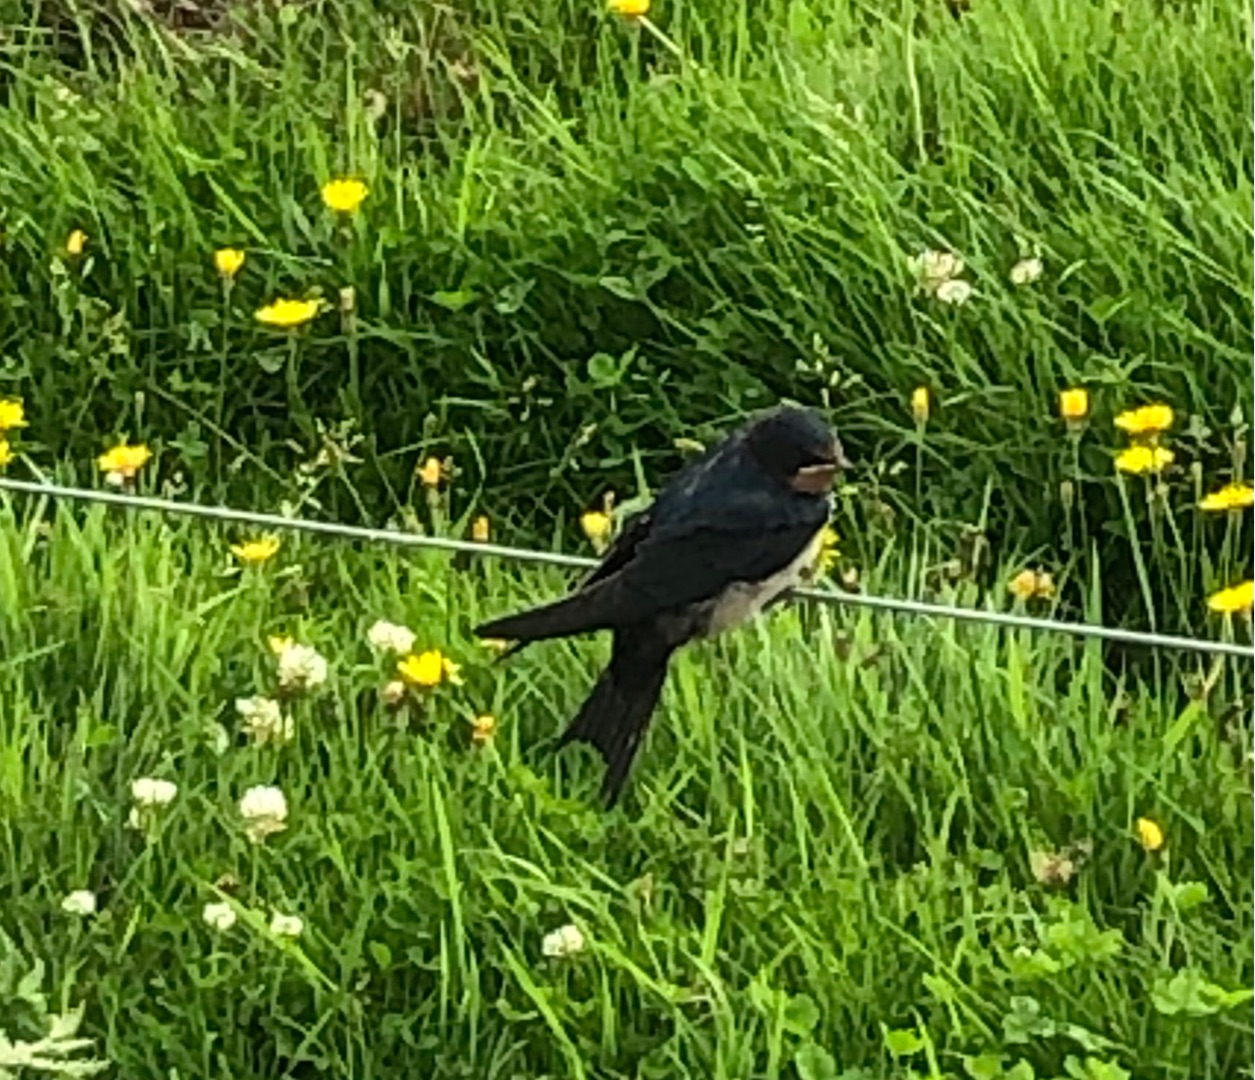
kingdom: Animalia
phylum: Chordata
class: Aves
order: Passeriformes
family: Hirundinidae
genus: Hirundo
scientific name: Hirundo rustica
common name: Landsvale
